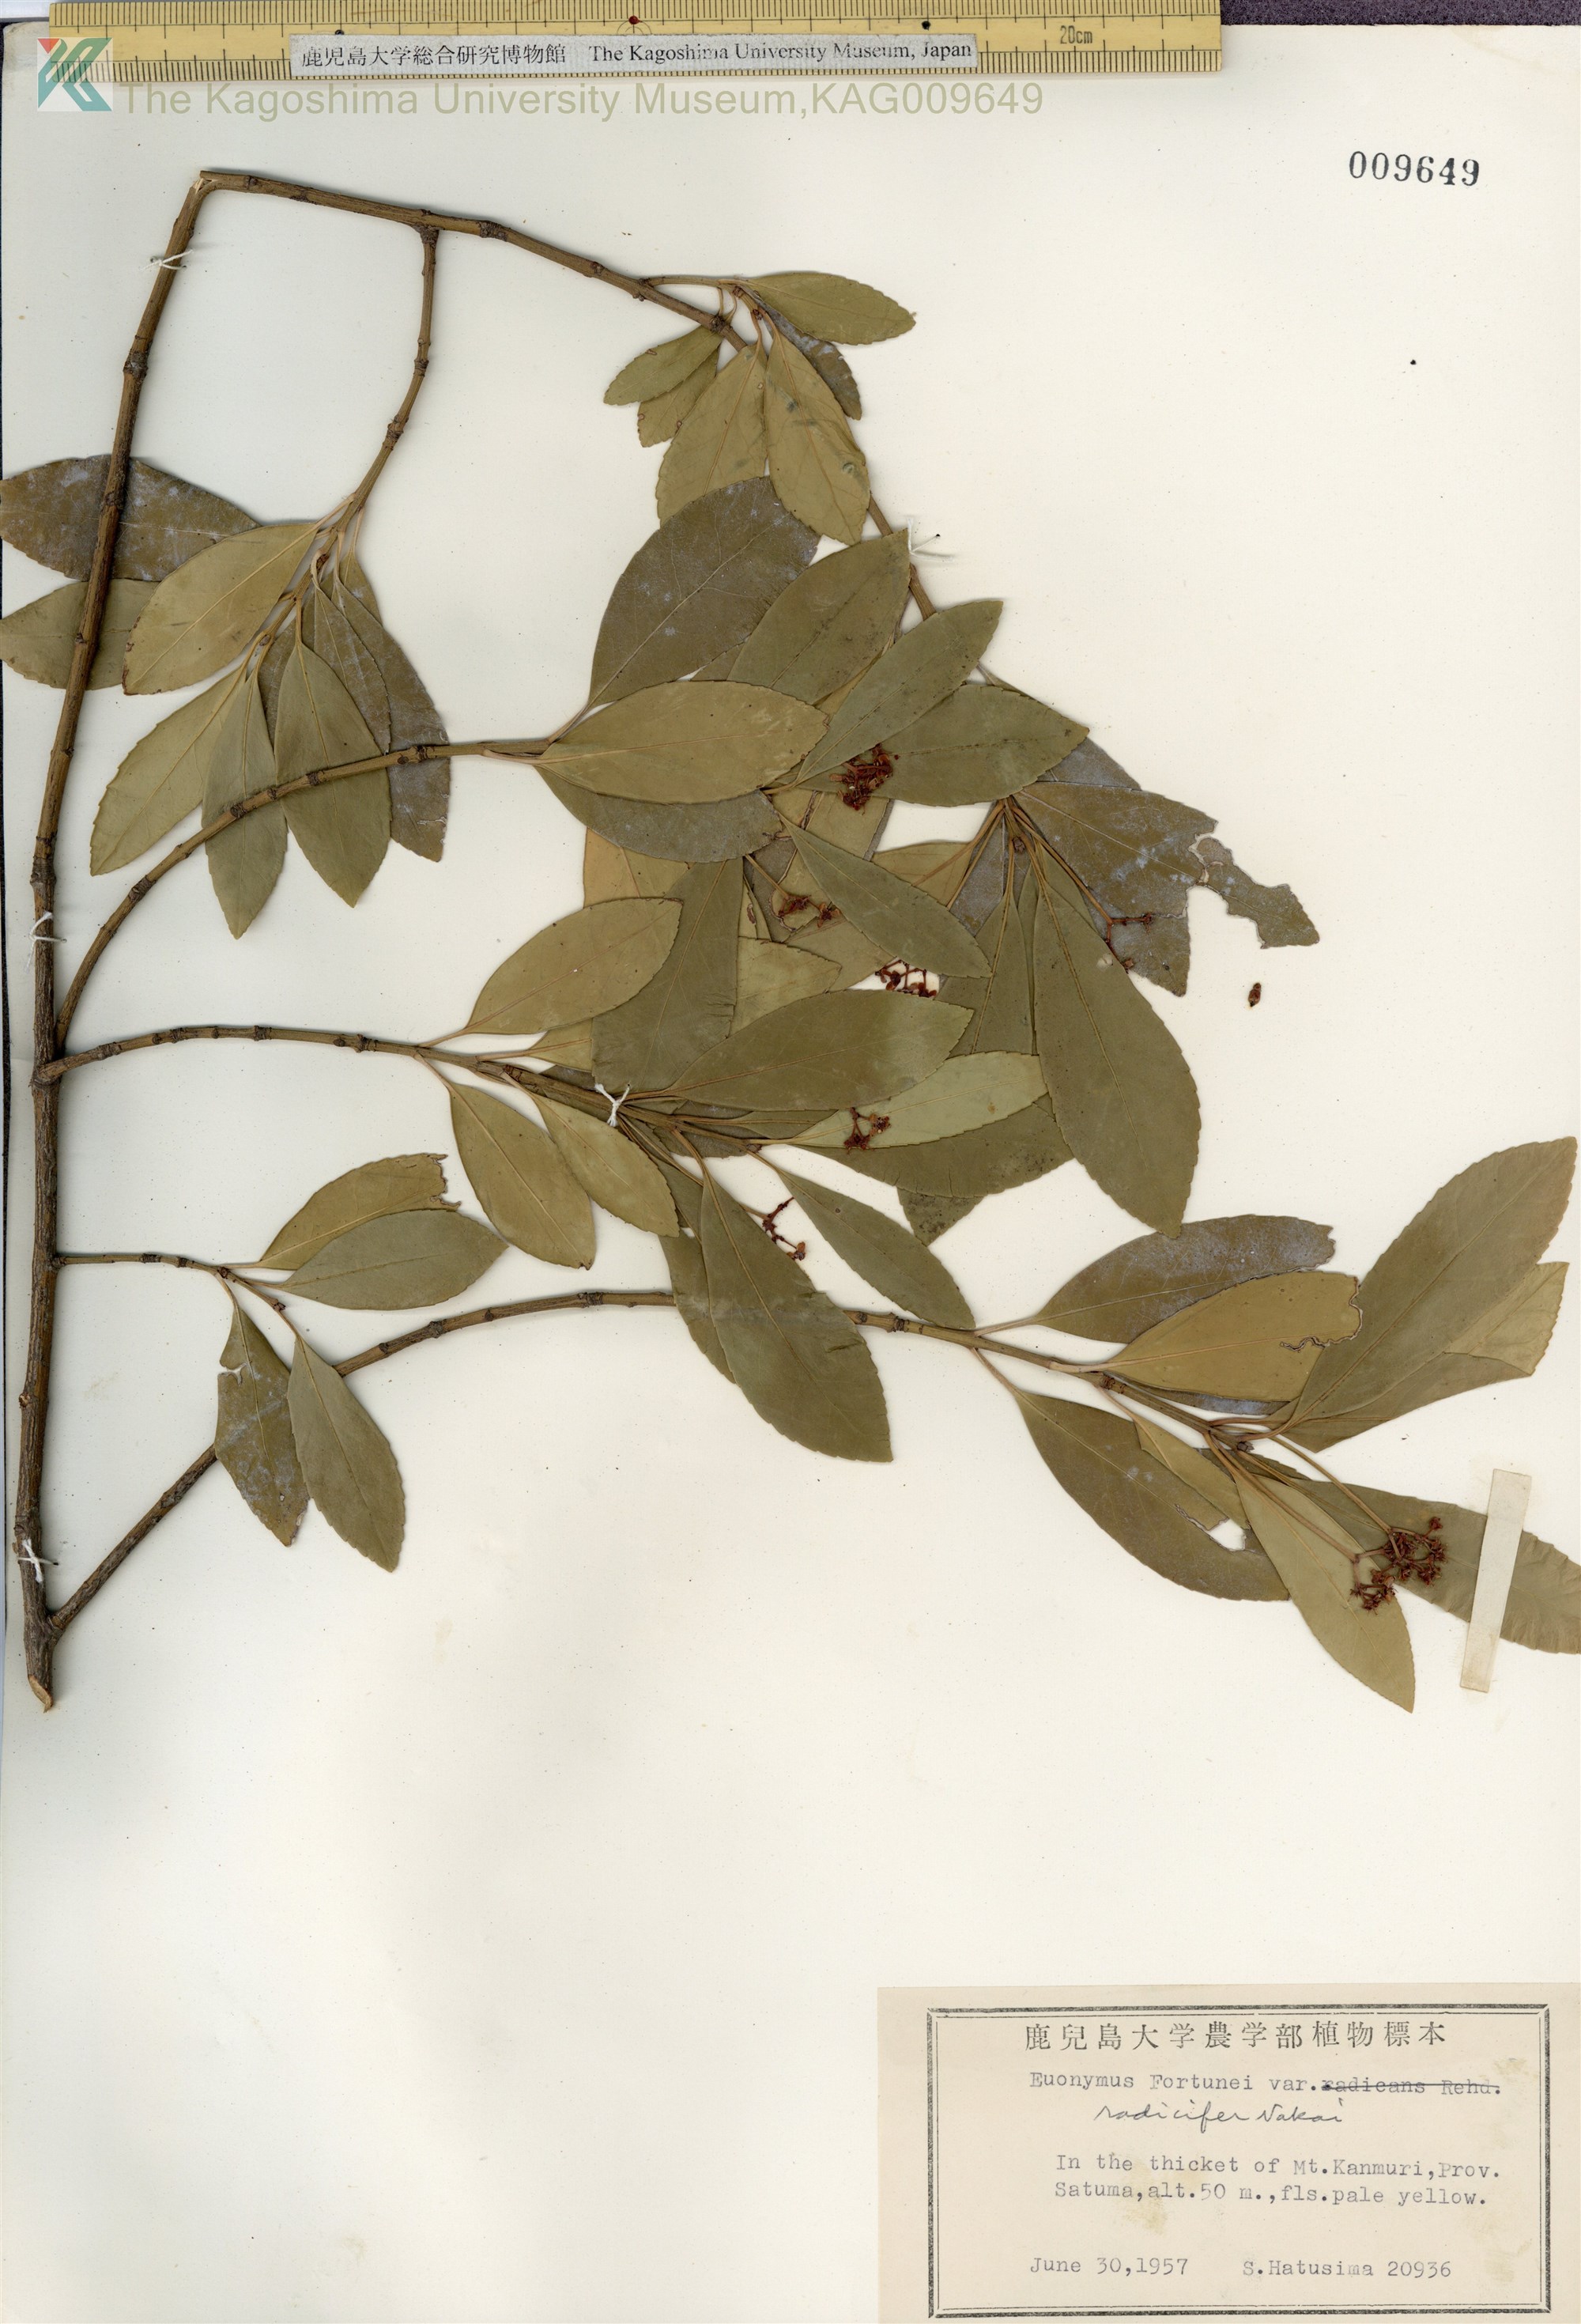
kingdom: Plantae
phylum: Tracheophyta
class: Magnoliopsida
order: Celastrales
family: Celastraceae
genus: Euonymus
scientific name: Euonymus japonicus
